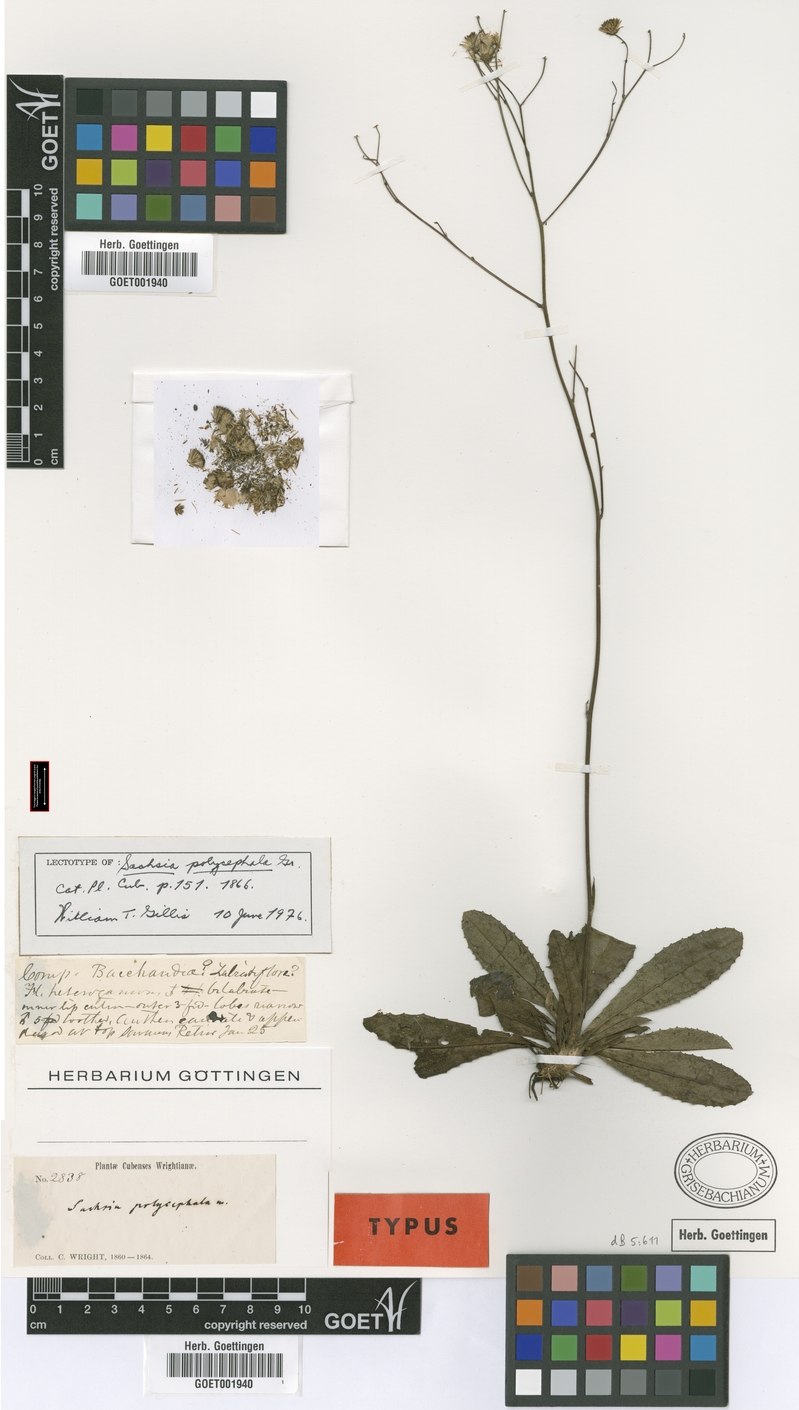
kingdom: Plantae
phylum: Tracheophyta
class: Magnoliopsida
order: Asterales
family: Asteraceae
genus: Sachsia
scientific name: Sachsia polycephala
